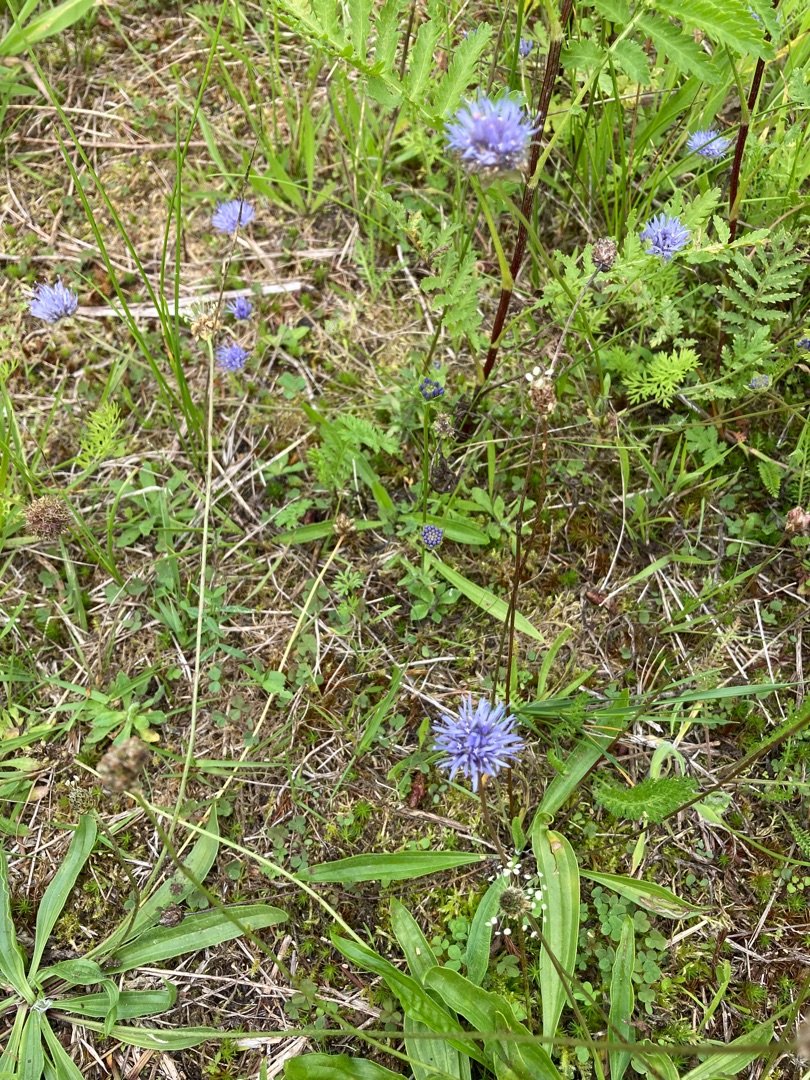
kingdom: Plantae
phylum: Tracheophyta
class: Magnoliopsida
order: Asterales
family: Campanulaceae
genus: Jasione
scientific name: Jasione montana
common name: Blåmunke
